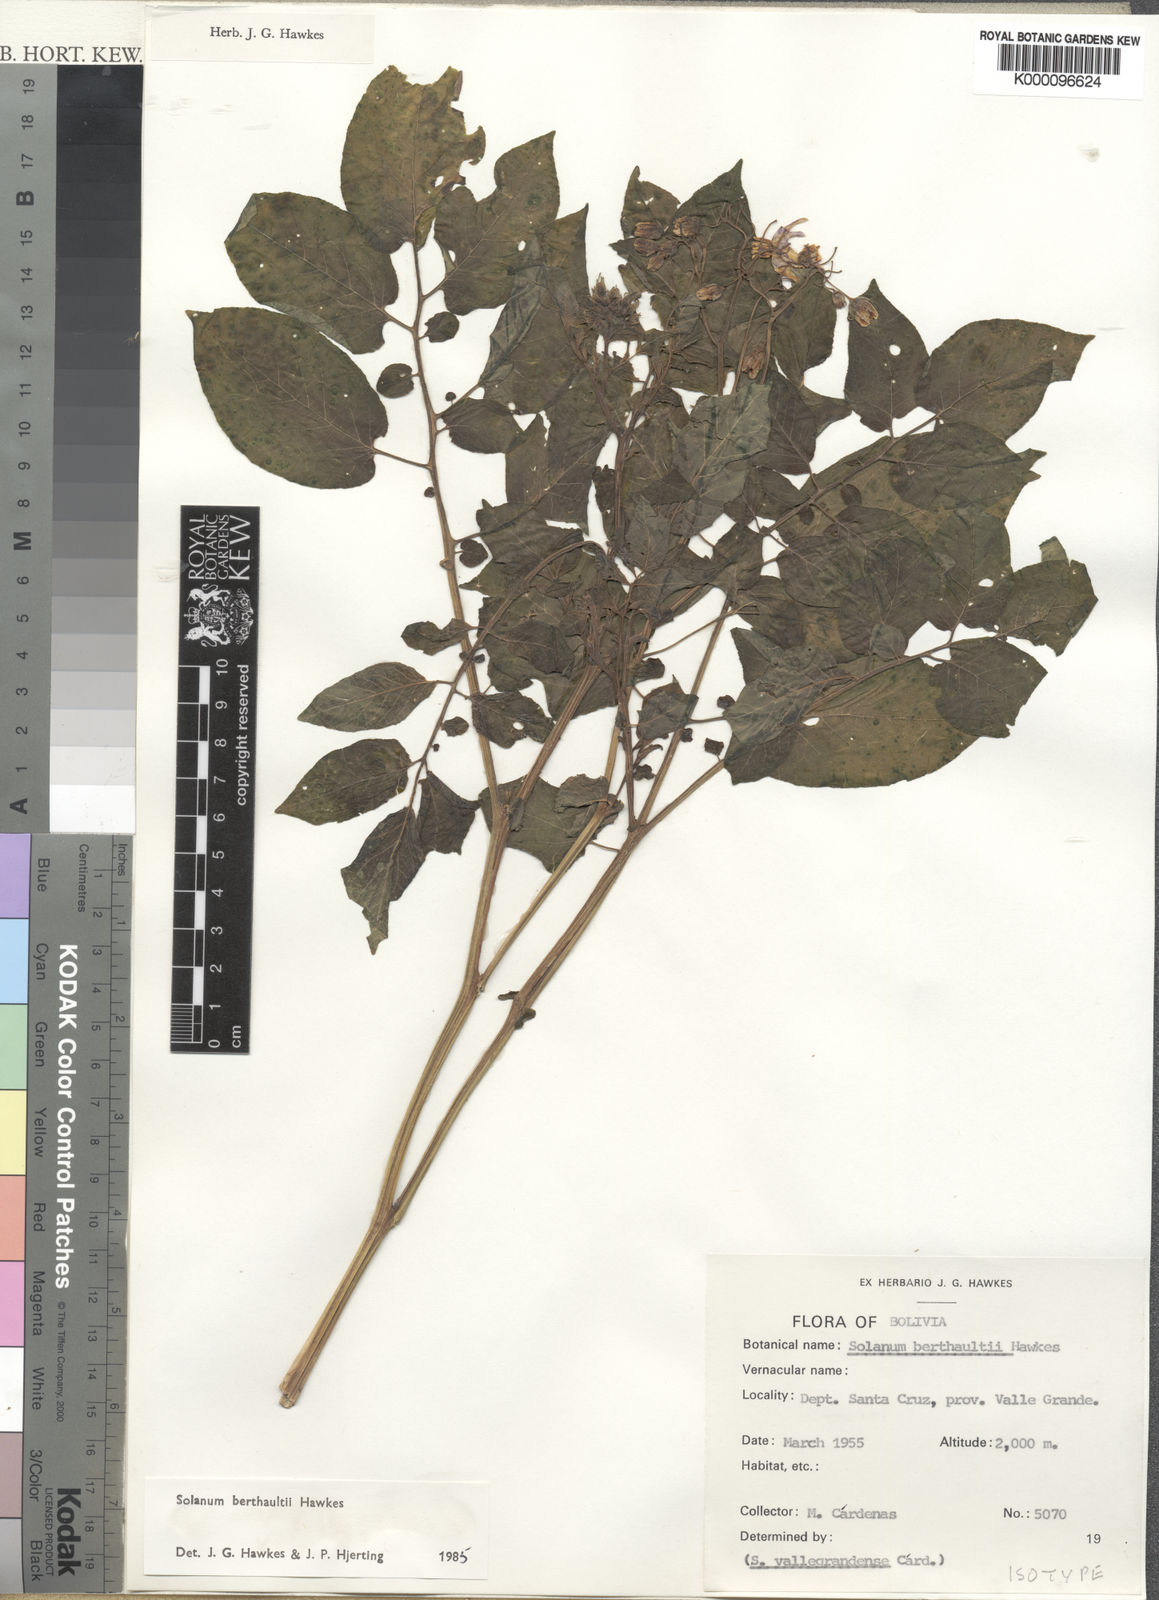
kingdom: Plantae
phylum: Tracheophyta
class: Magnoliopsida
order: Solanales
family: Solanaceae
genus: Solanum
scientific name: Solanum berthaultii
